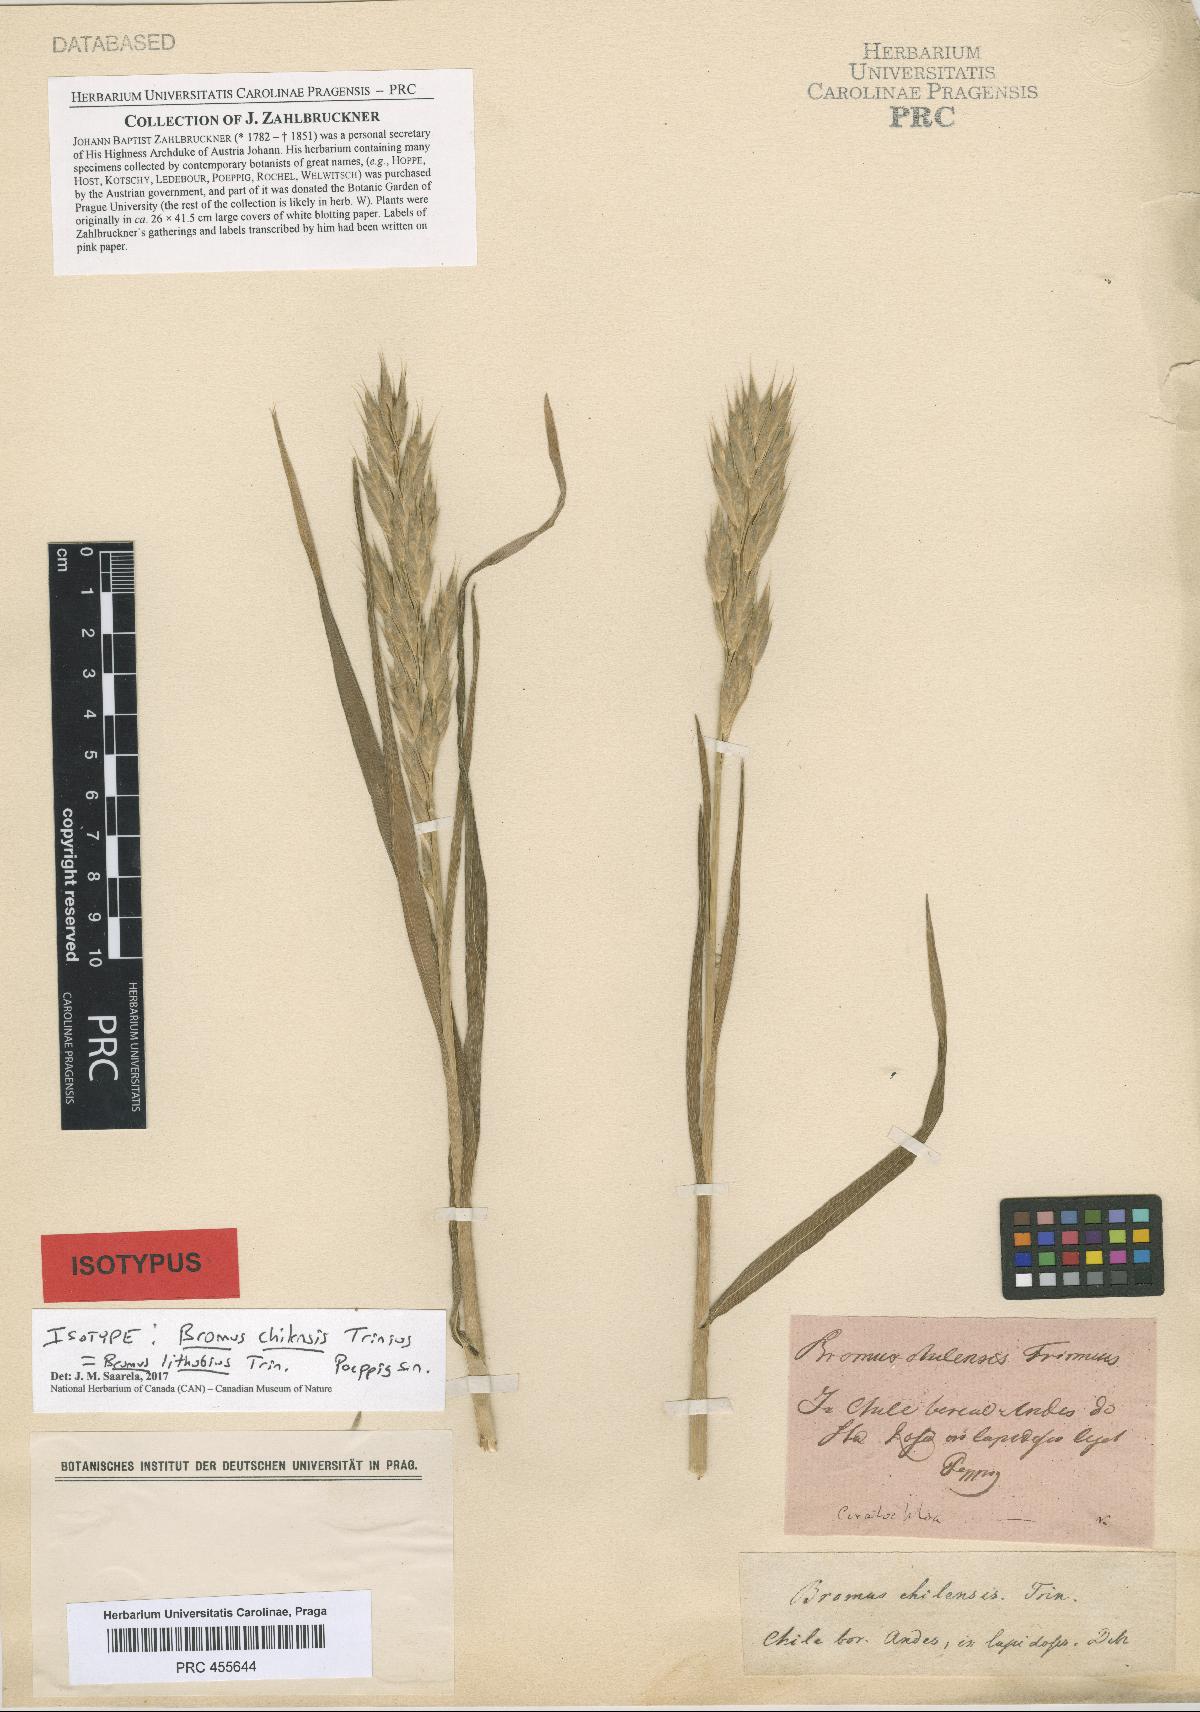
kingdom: Plantae
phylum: Tracheophyta
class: Liliopsida
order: Poales
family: Poaceae
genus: Bromus
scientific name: Bromus lithobius
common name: Chilean brome
